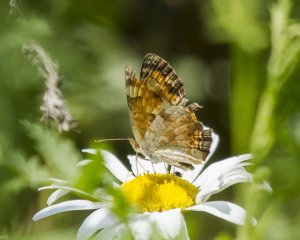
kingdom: Animalia
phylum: Arthropoda
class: Insecta
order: Lepidoptera
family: Nymphalidae
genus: Phyciodes
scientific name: Phyciodes tharos
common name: Northern Crescent
